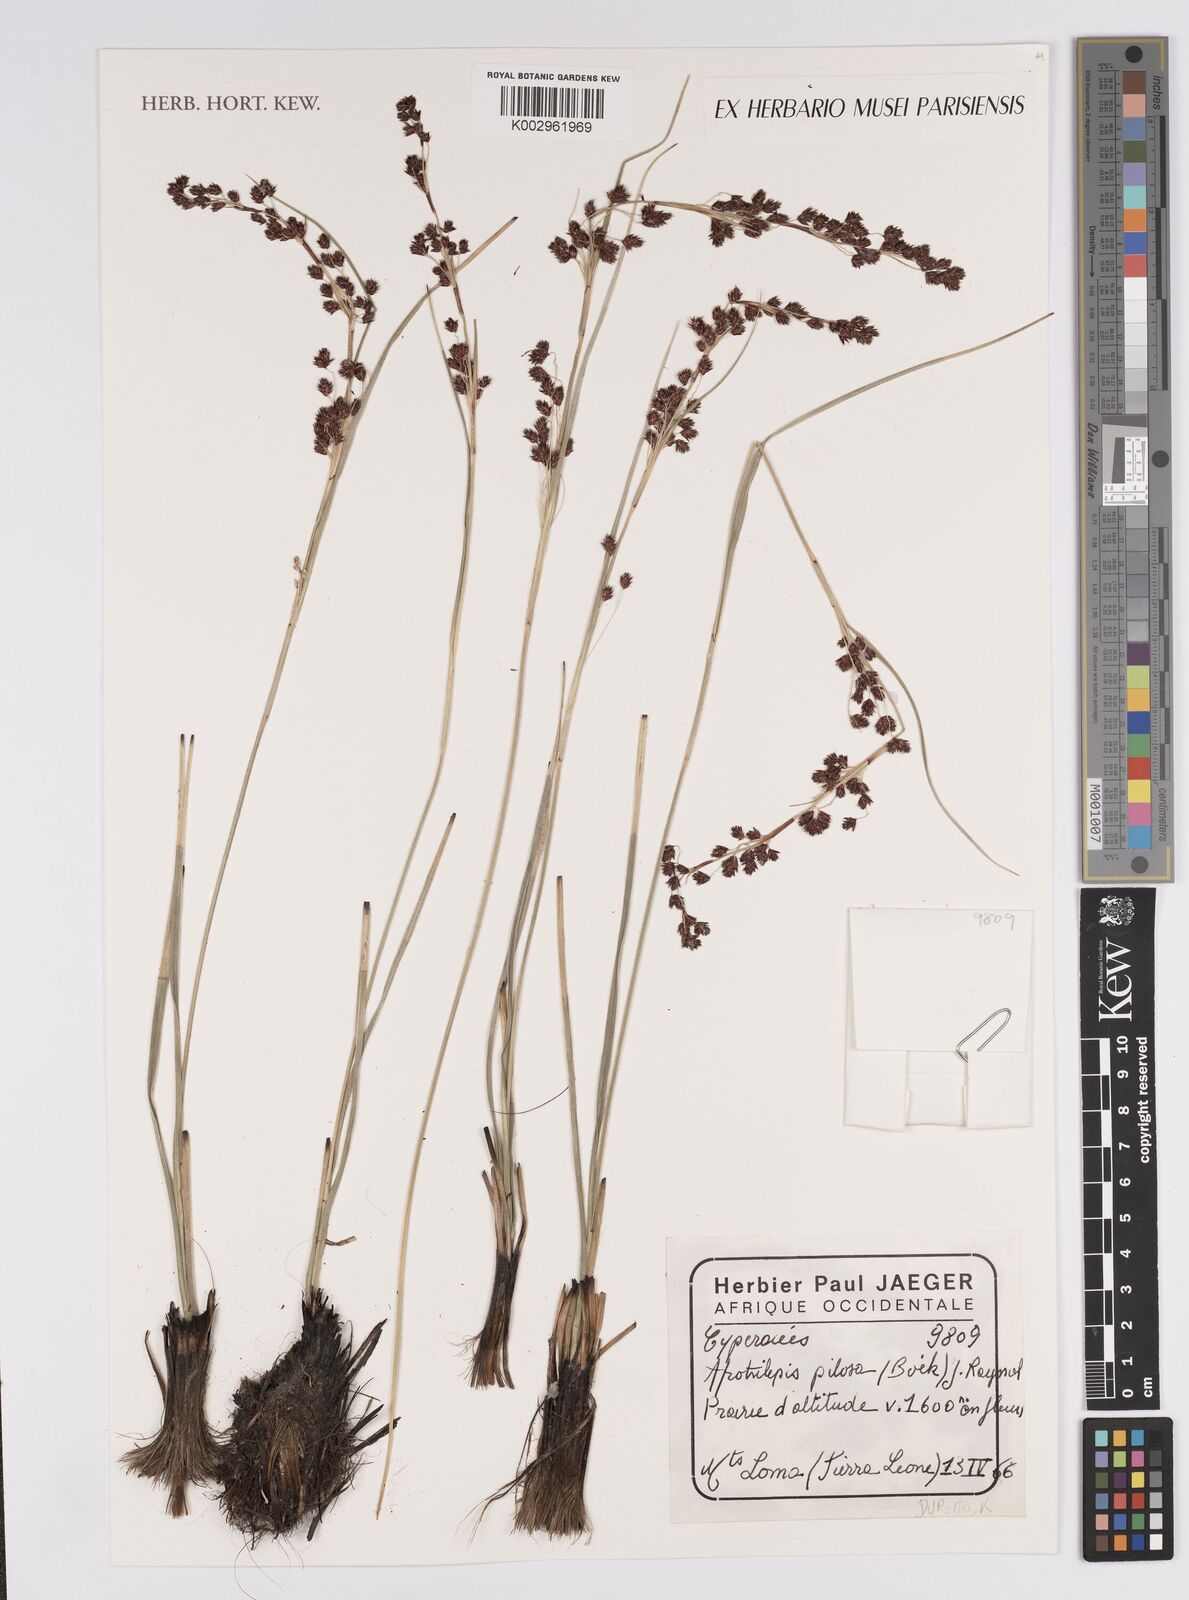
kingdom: Plantae
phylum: Tracheophyta
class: Liliopsida
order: Poales
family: Cyperaceae
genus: Afrotrilepis
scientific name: Afrotrilepis pilosa
